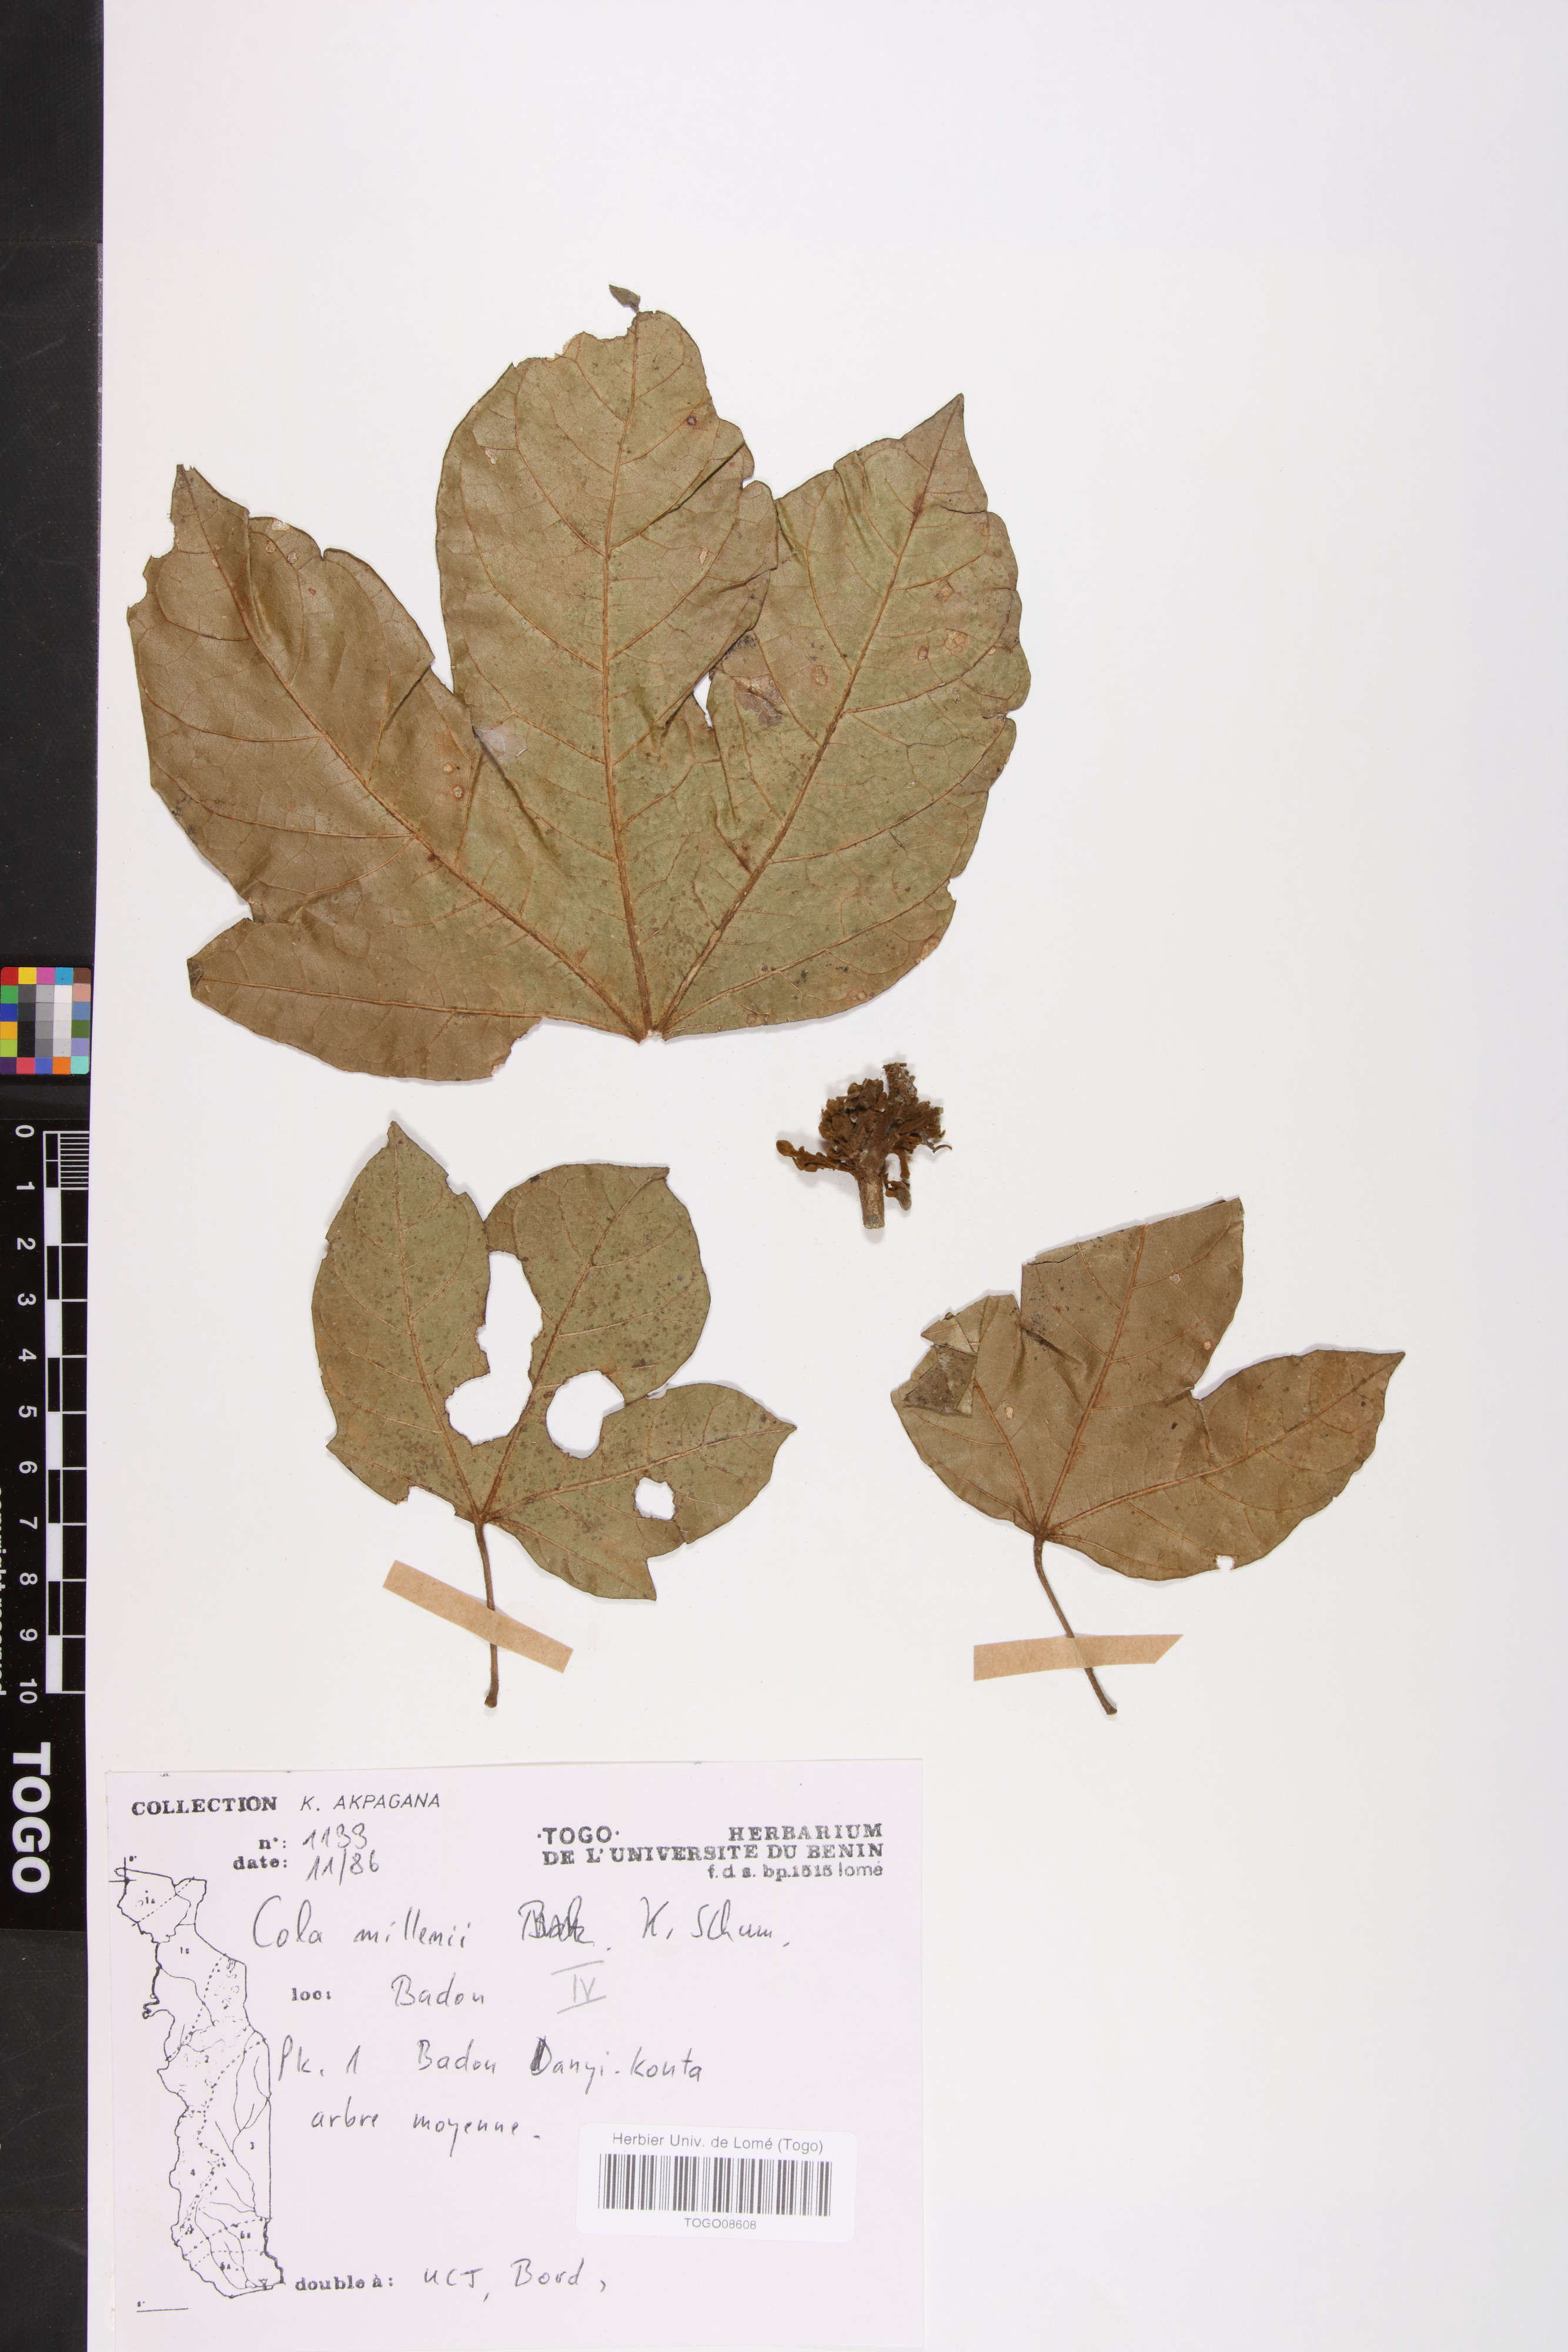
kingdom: Plantae
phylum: Tracheophyta
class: Magnoliopsida
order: Malvales
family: Malvaceae
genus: Cola
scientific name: Cola millenii
